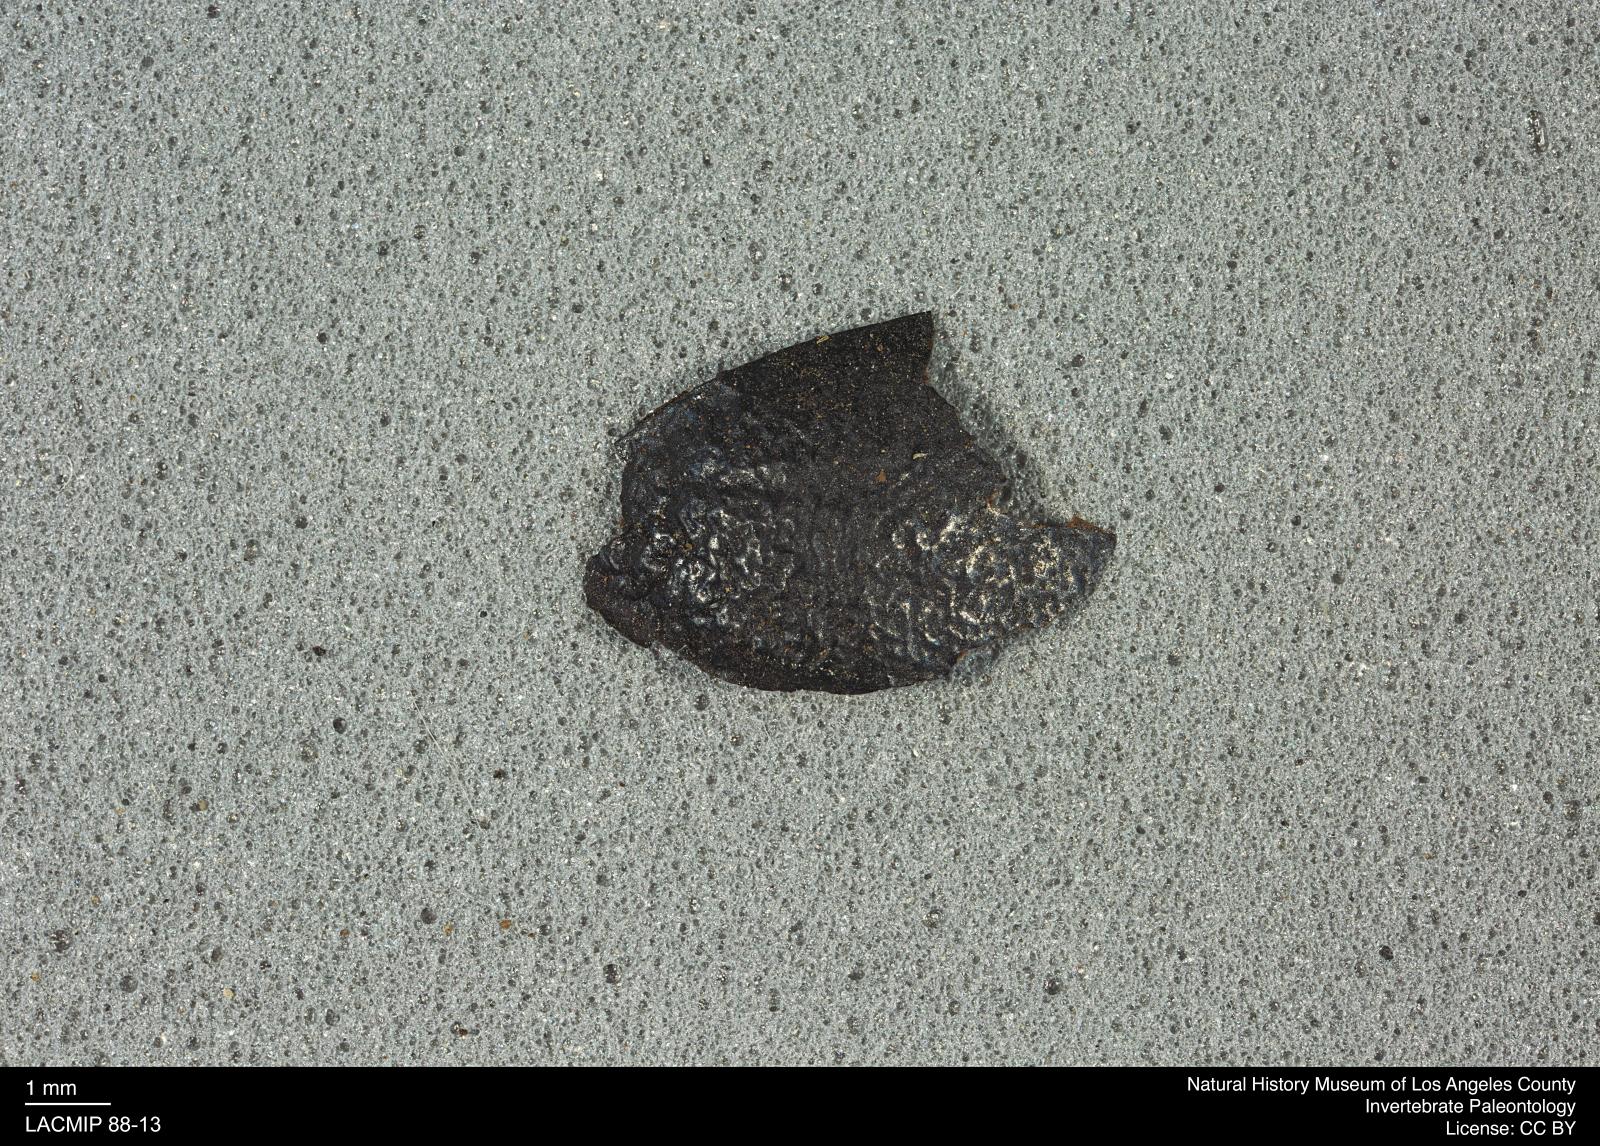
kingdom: Animalia
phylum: Arthropoda
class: Insecta
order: Coleoptera
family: Tenebrionidae
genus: Coniontis
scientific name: Coniontis abdominalis
